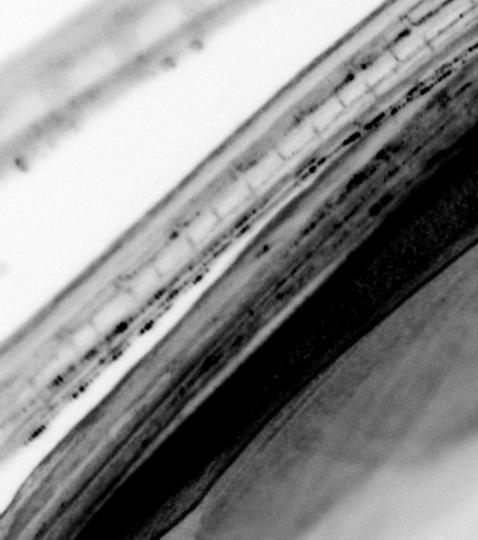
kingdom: Animalia
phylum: Chordata
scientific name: Chordata
